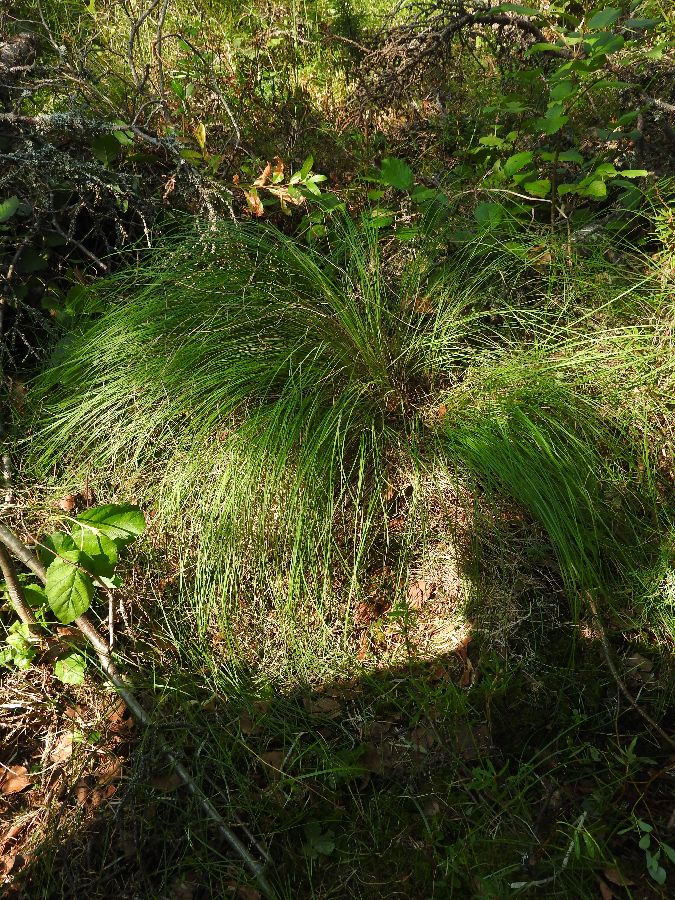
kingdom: Plantae
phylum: Tracheophyta
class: Liliopsida
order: Poales
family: Cyperaceae
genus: Carex
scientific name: Carex nigra
